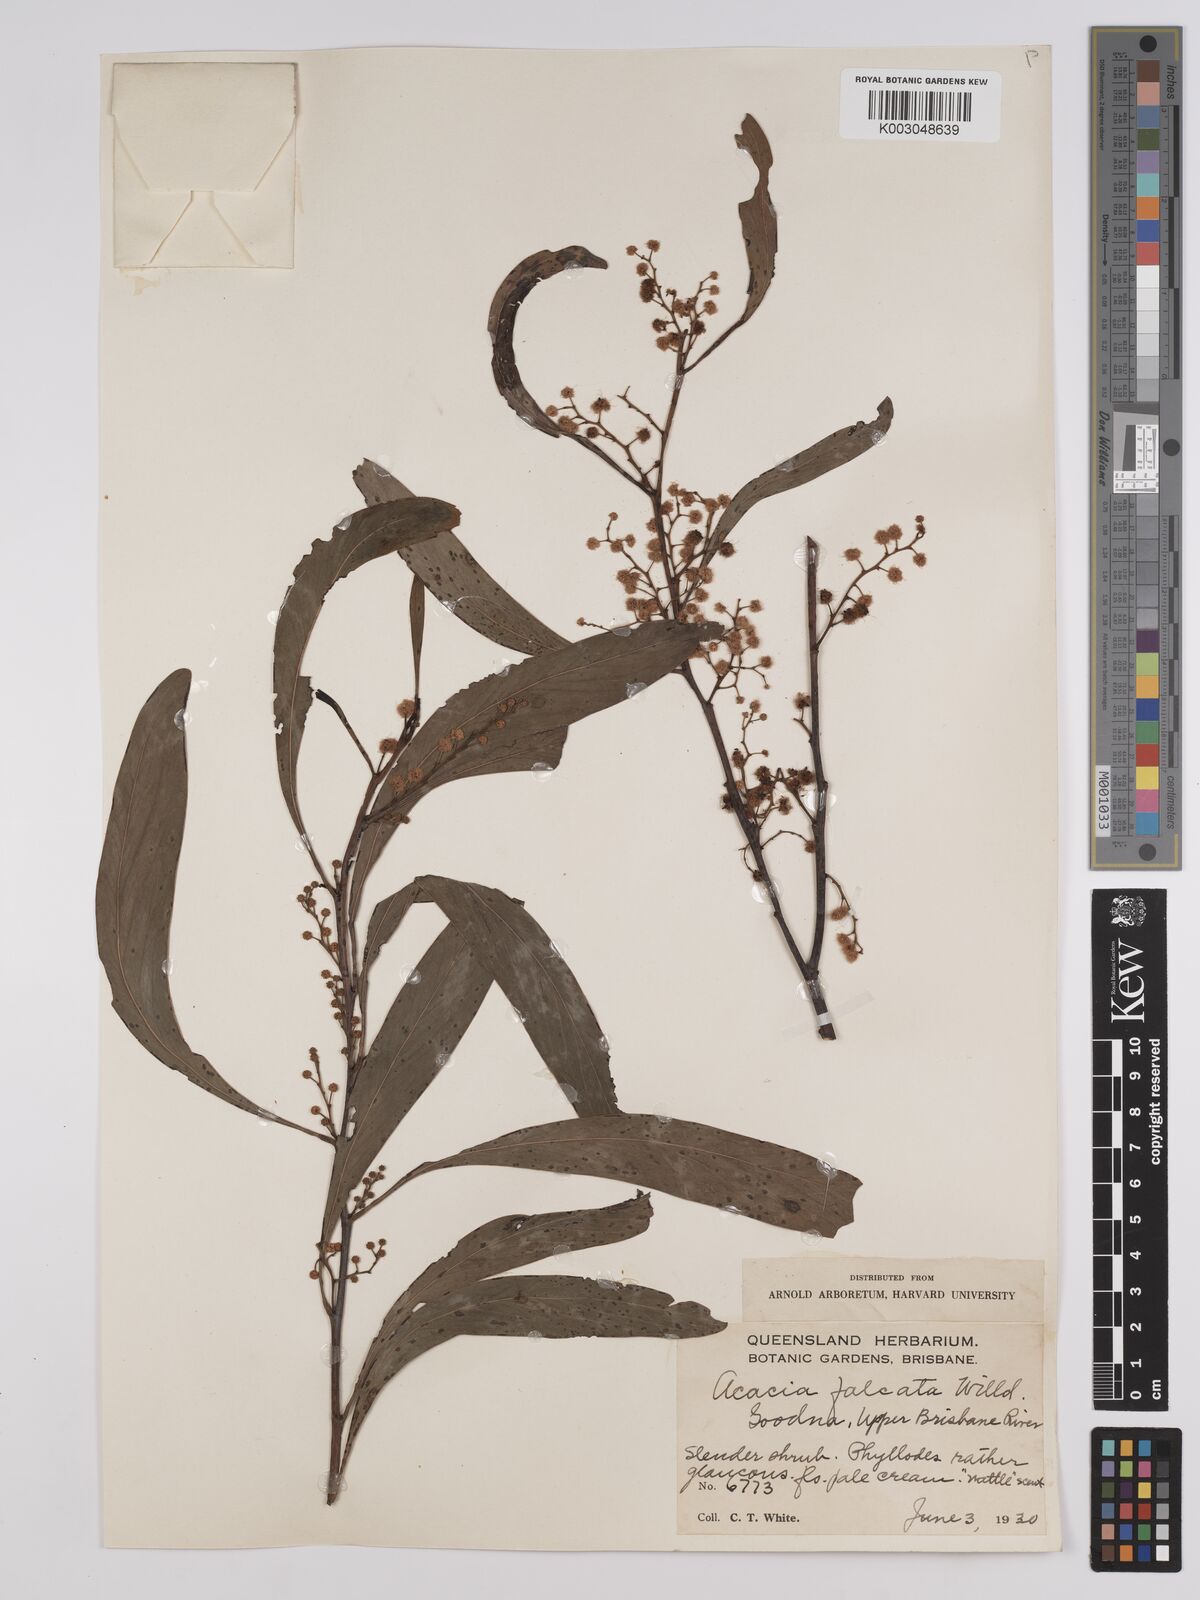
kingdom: Plantae
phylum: Tracheophyta
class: Magnoliopsida
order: Fabales
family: Fabaceae
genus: Acacia
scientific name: Acacia falcata
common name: Burra acacia
